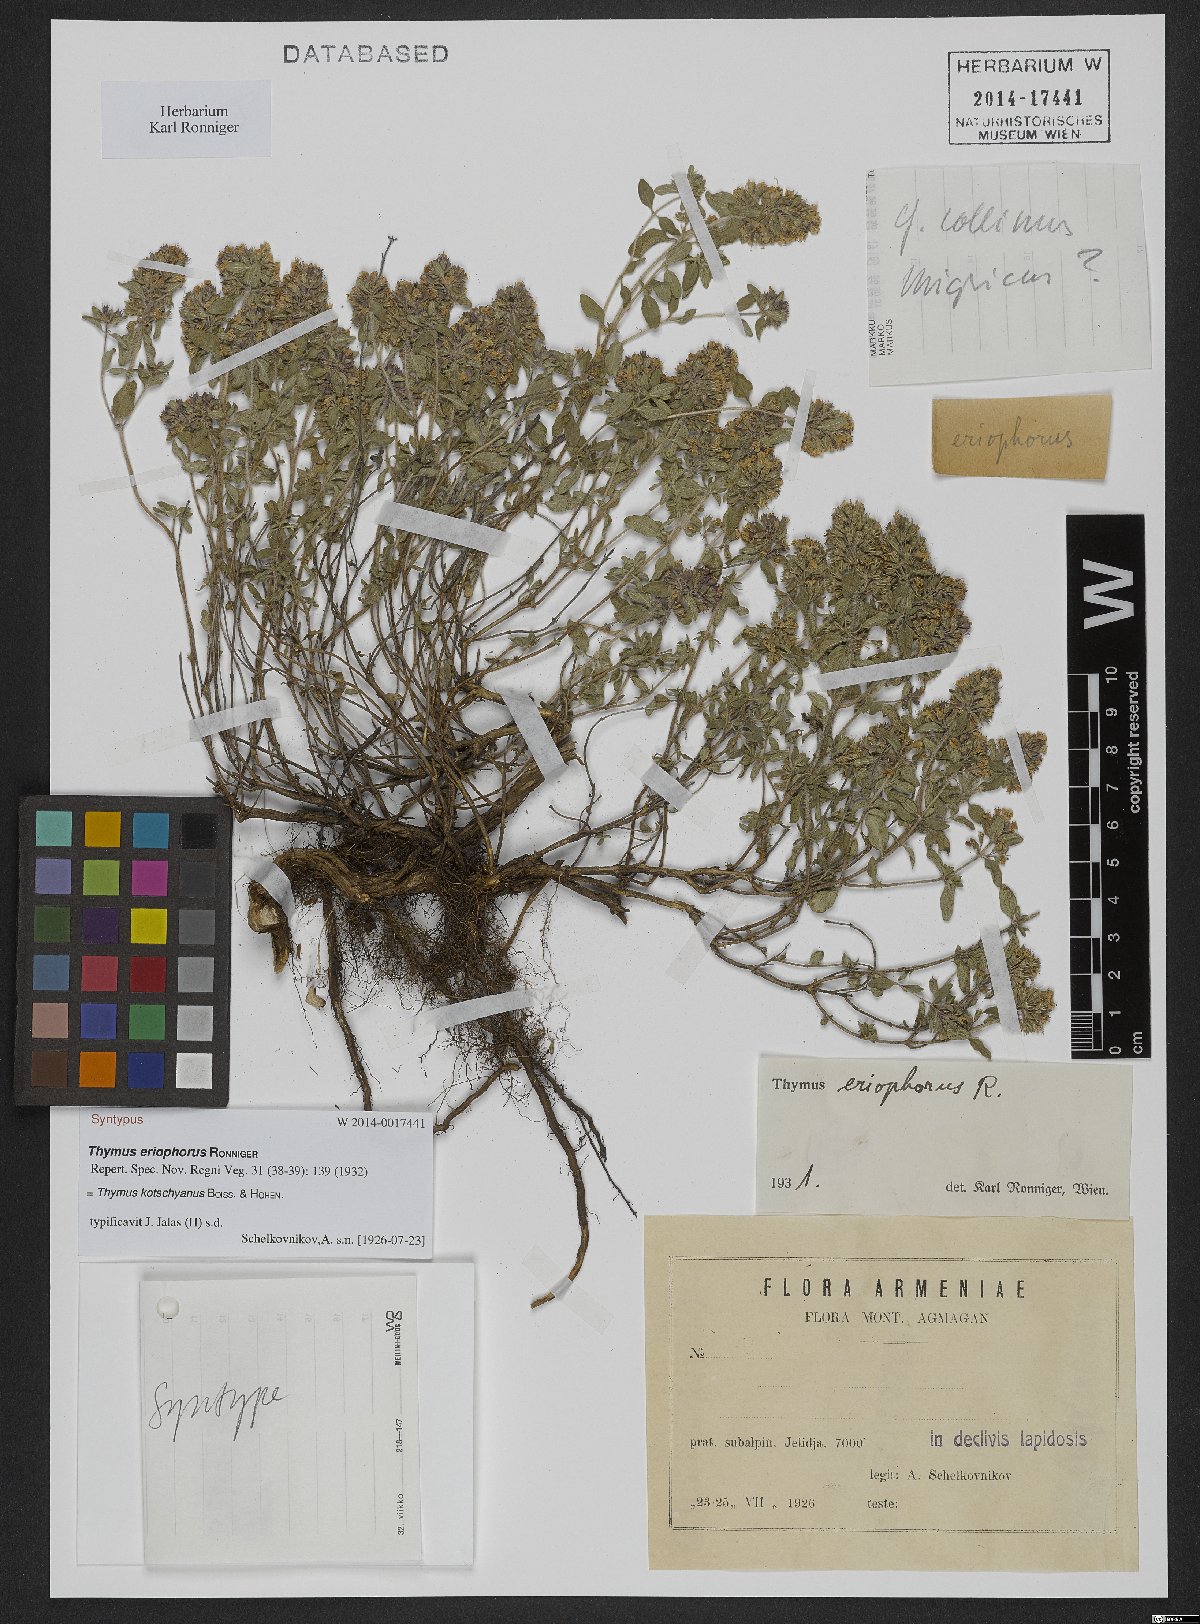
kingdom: Plantae
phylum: Tracheophyta
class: Magnoliopsida
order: Lamiales
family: Lamiaceae
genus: Thymus
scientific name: Thymus kotschyanus
